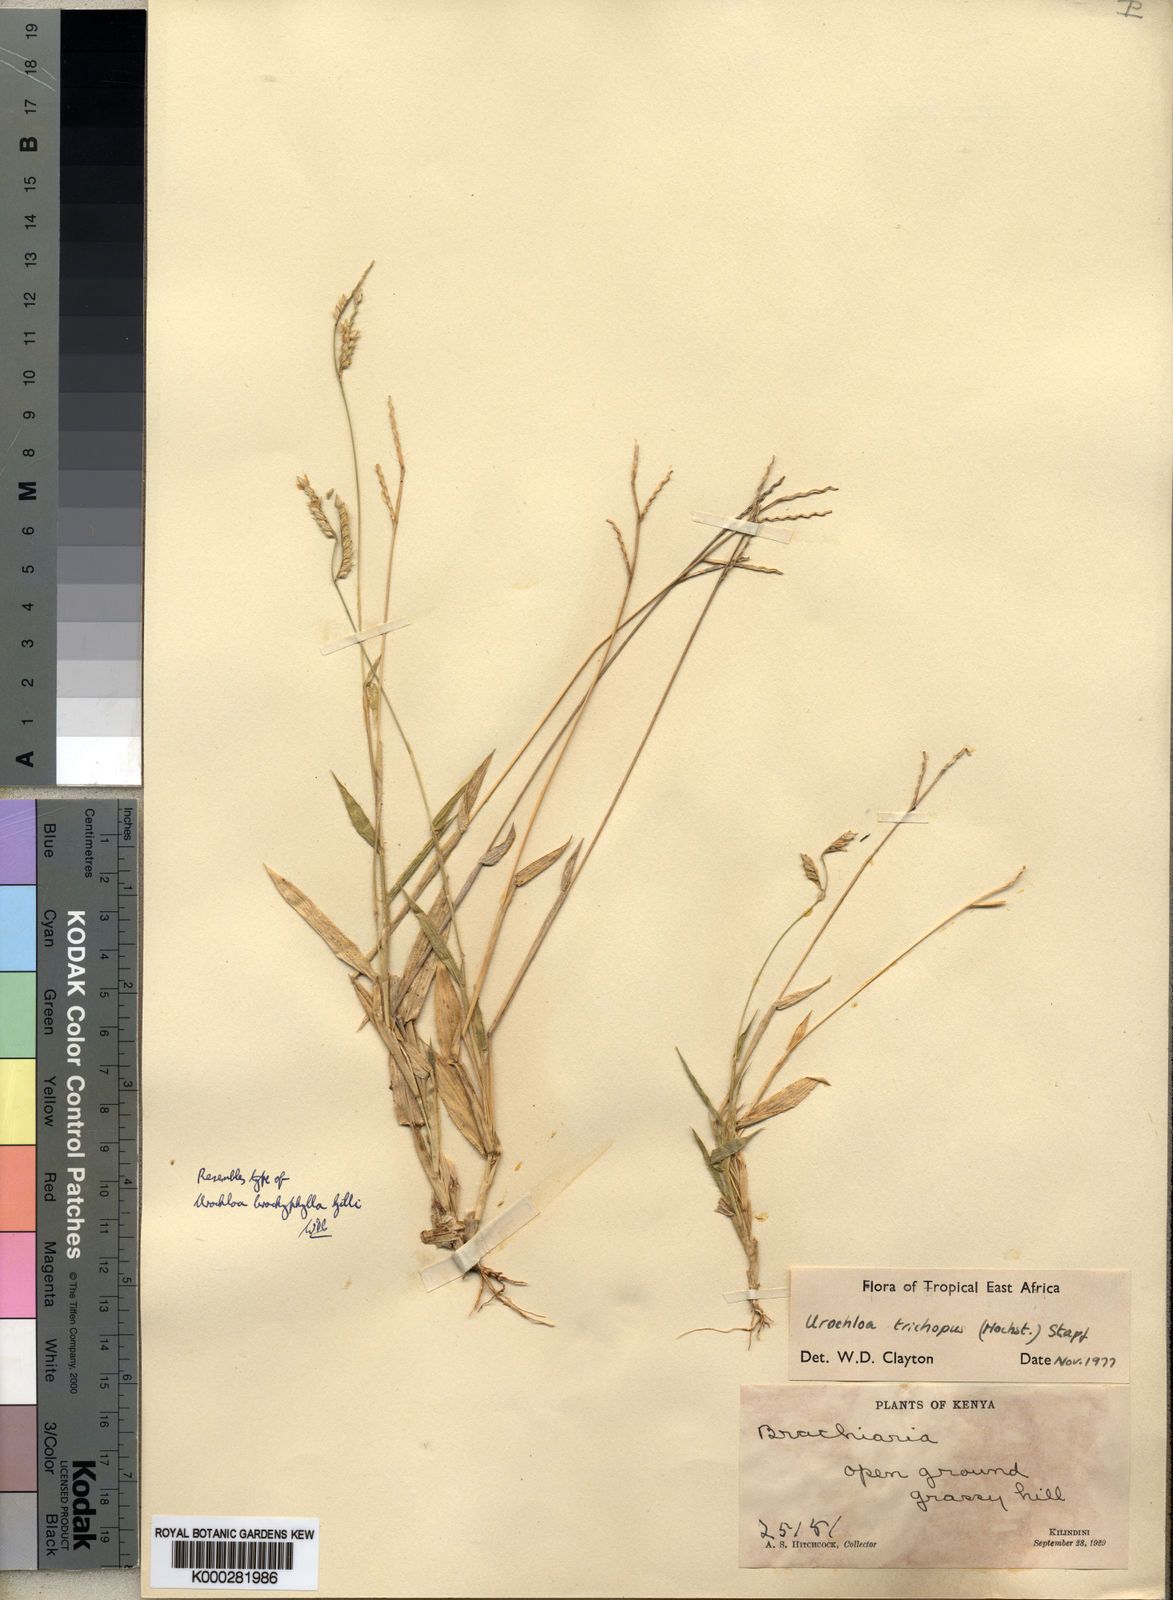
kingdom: Plantae
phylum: Tracheophyta
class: Liliopsida
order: Poales
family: Poaceae
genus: Urochloa
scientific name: Urochloa trichopus
